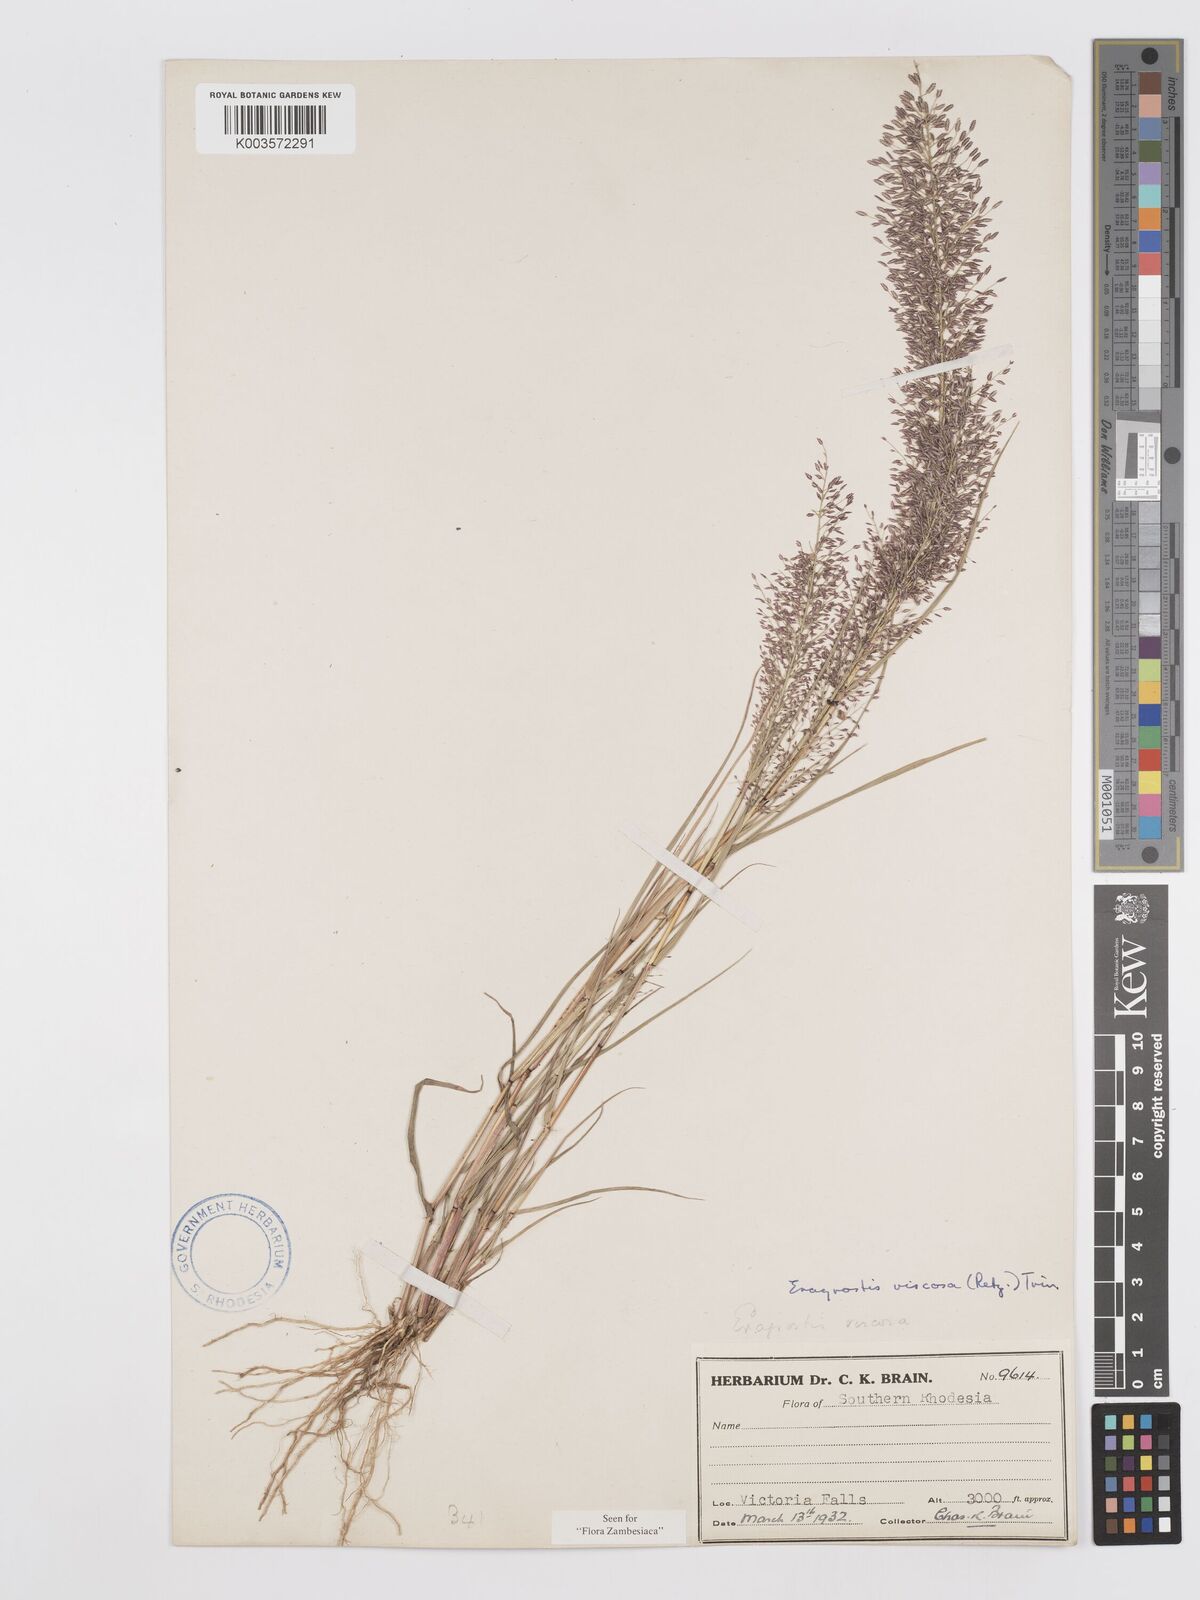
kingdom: Plantae
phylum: Tracheophyta
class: Liliopsida
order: Poales
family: Poaceae
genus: Eragrostis
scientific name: Eragrostis
